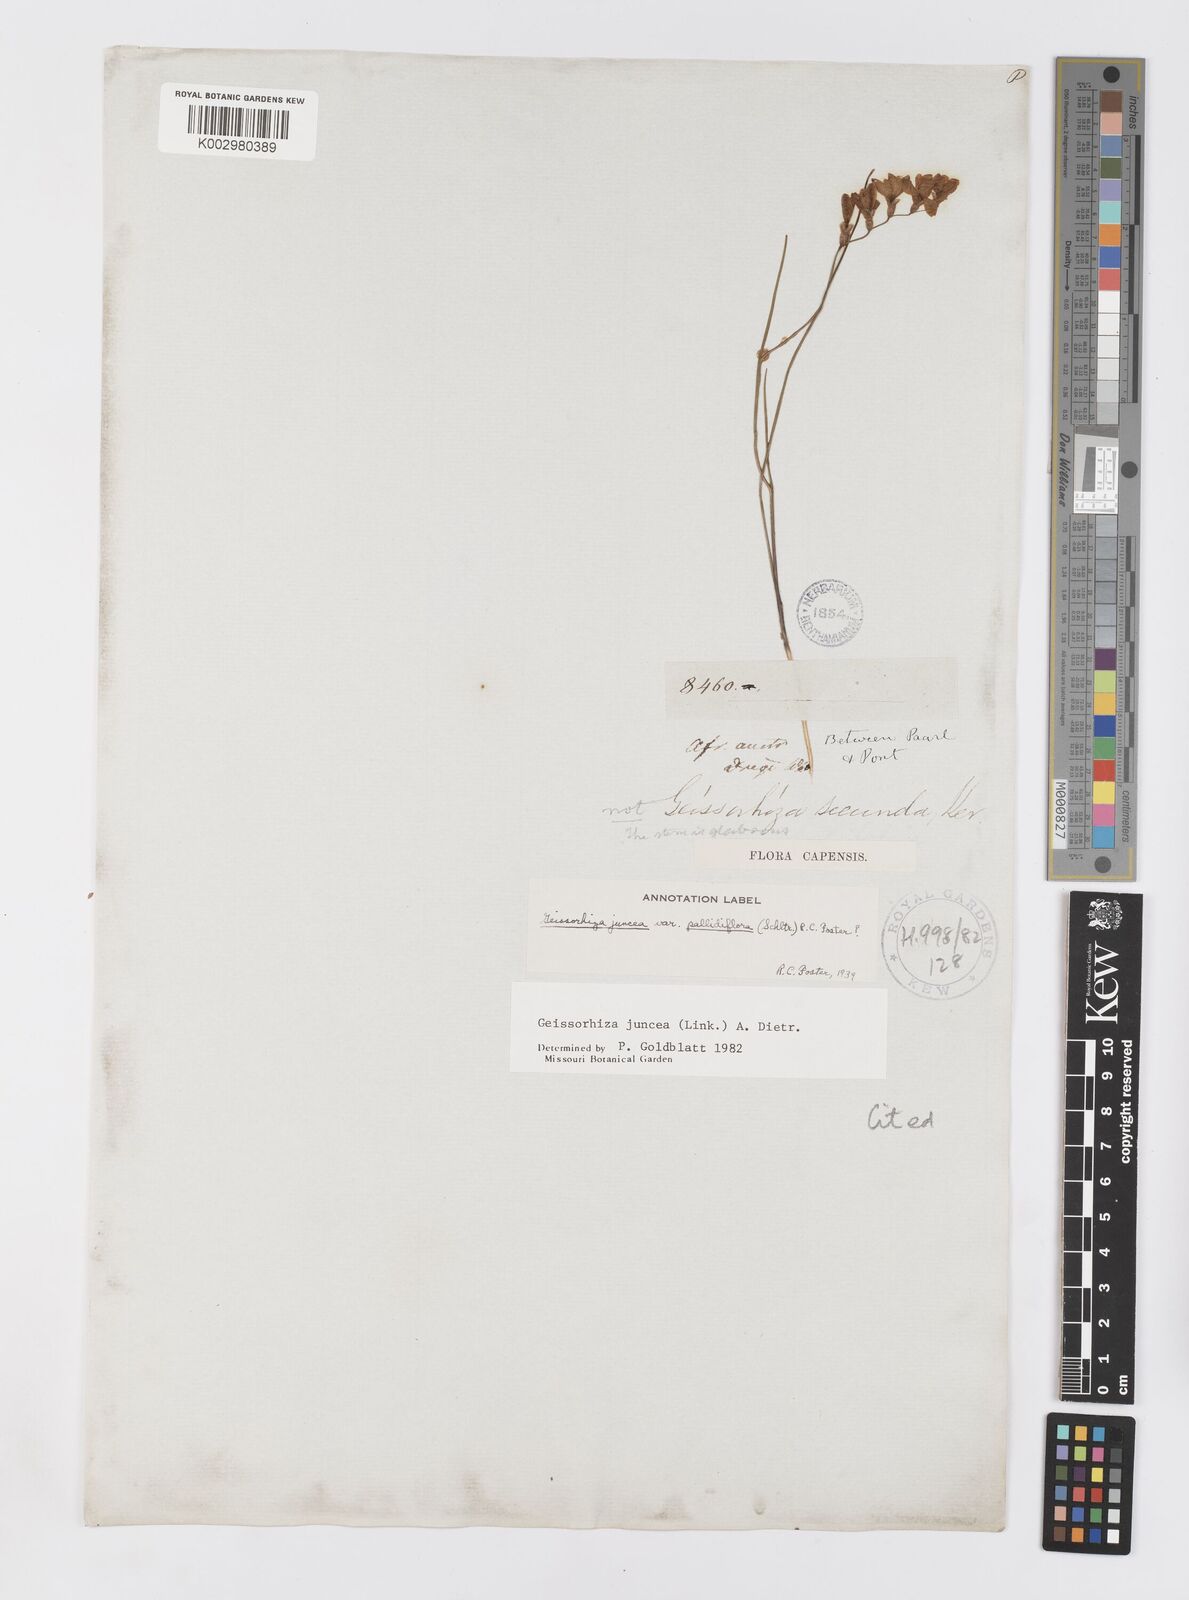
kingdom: Plantae
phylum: Tracheophyta
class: Liliopsida
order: Asparagales
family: Iridaceae
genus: Geissorhiza
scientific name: Geissorhiza juncea
